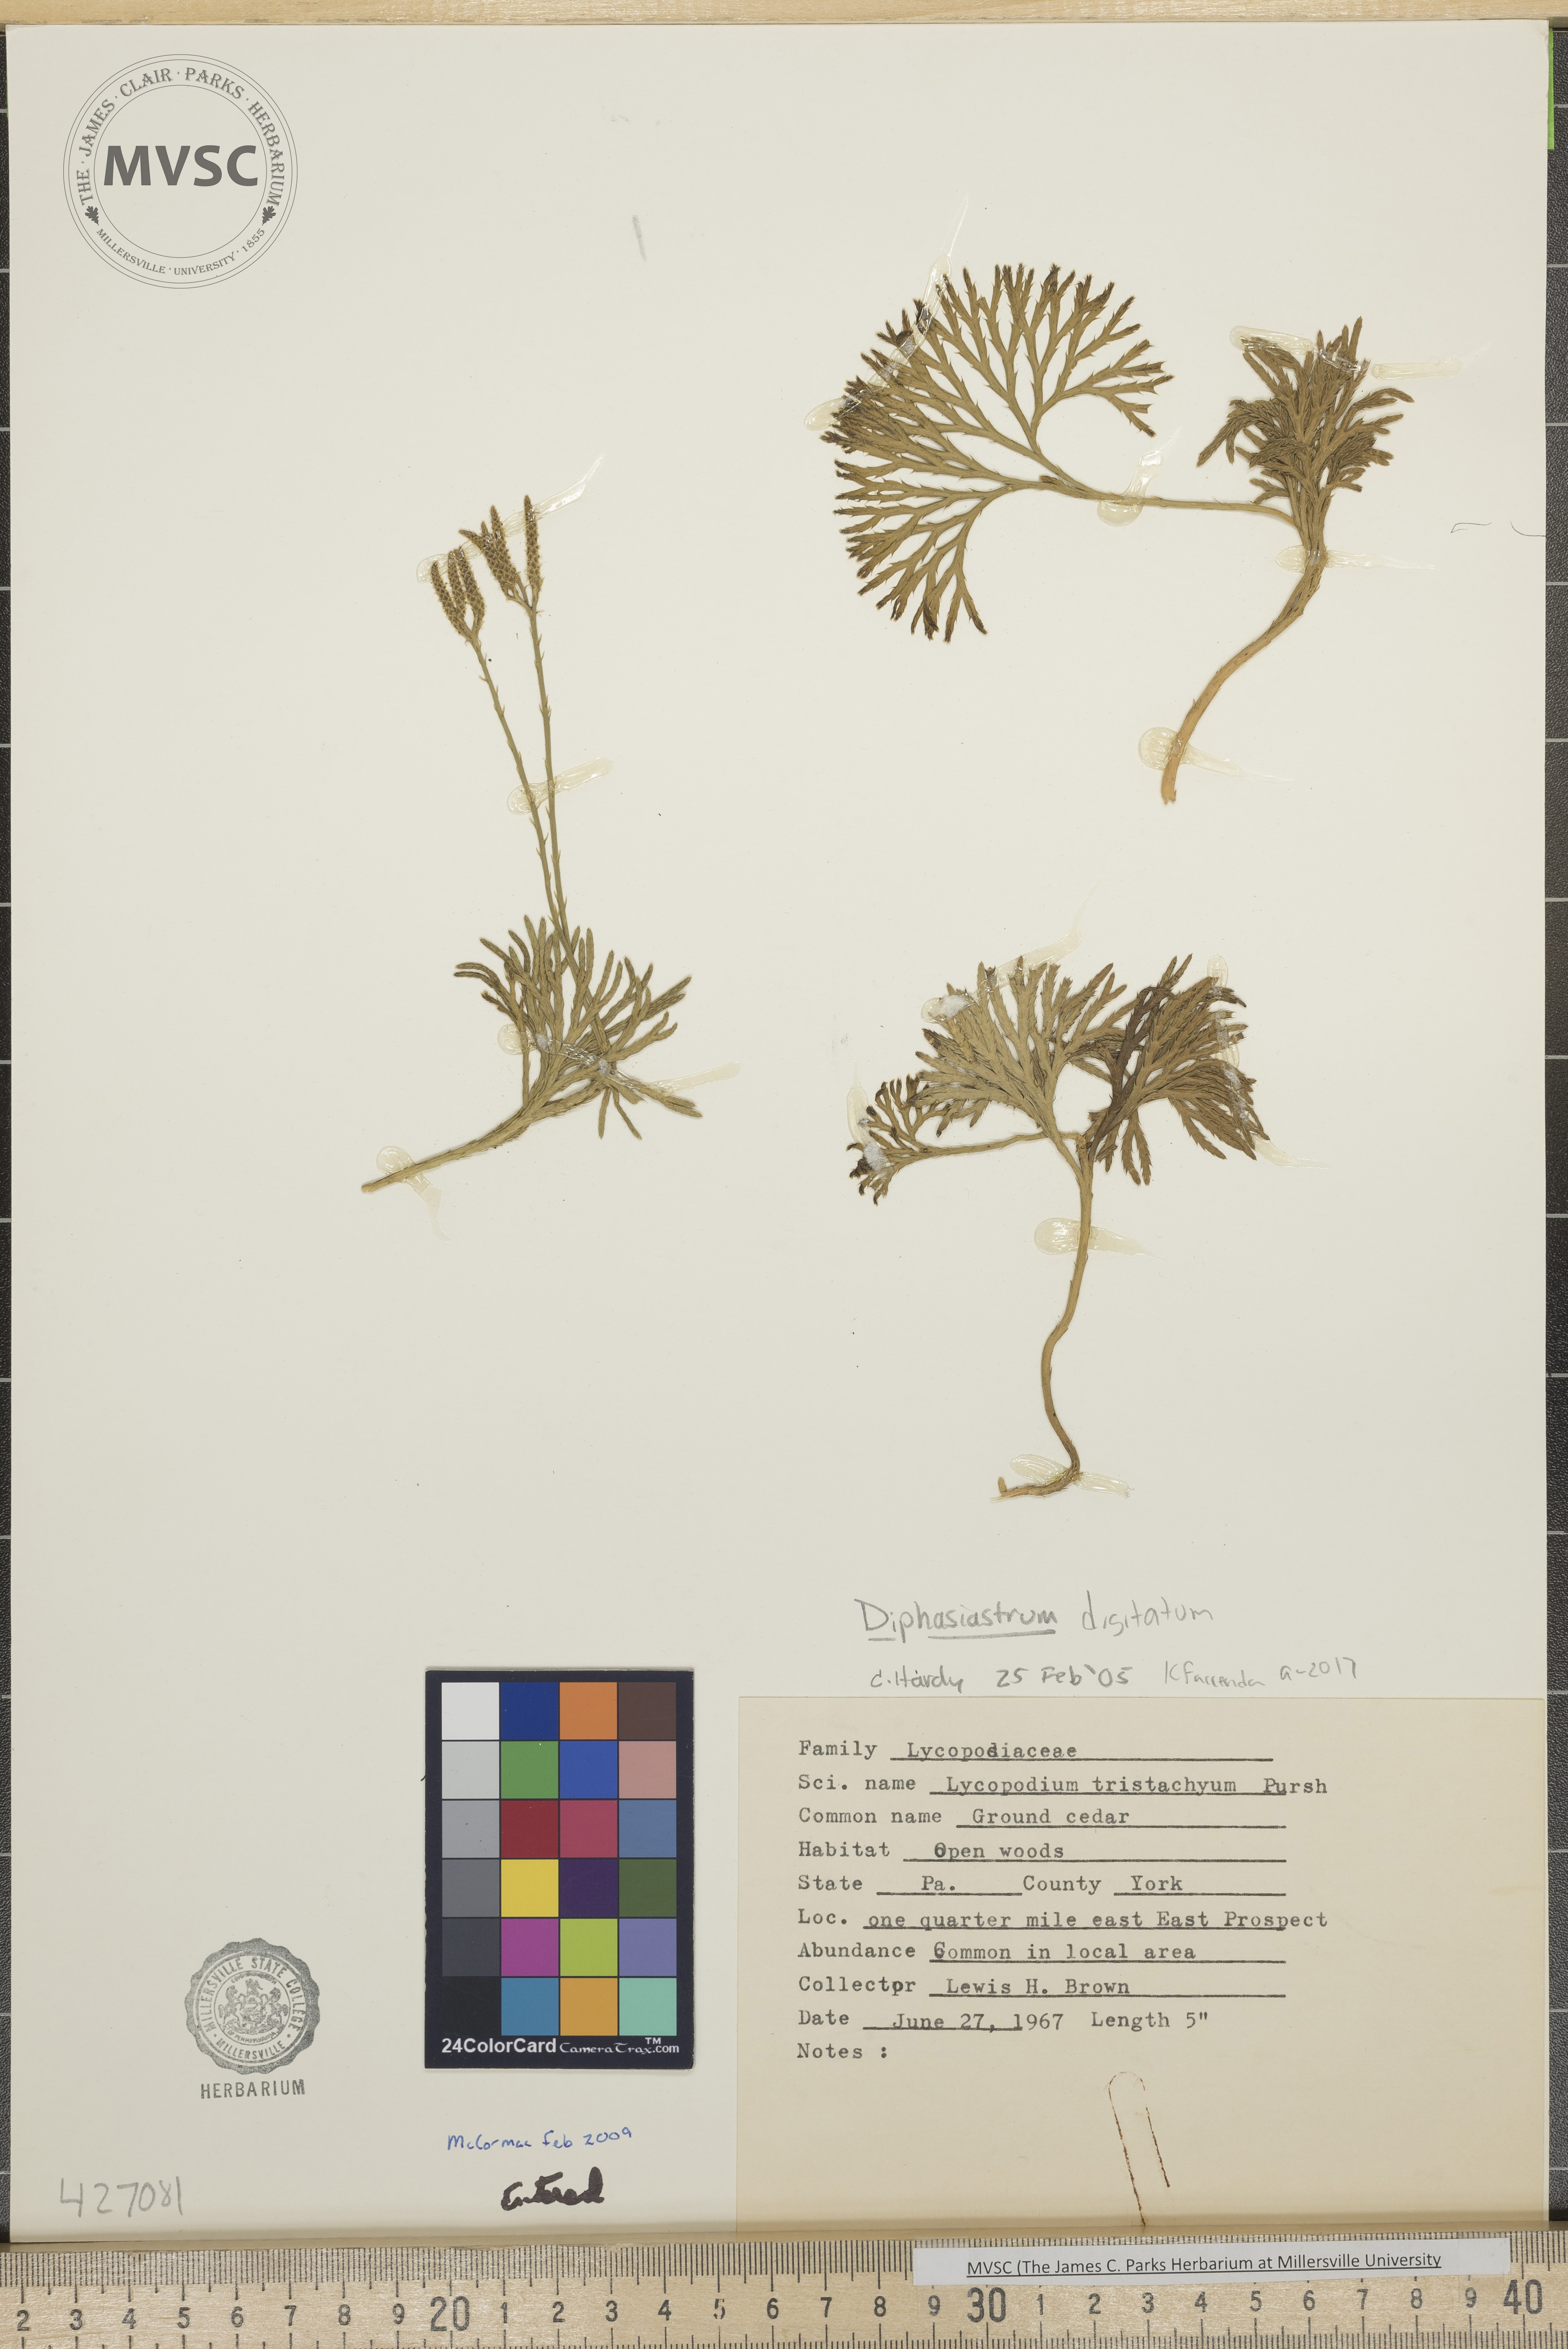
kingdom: Plantae
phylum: Tracheophyta
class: Lycopodiopsida
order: Lycopodiales
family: Lycopodiaceae
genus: Diphasiastrum
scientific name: Diphasiastrum digitatum
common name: Southern running-pine
